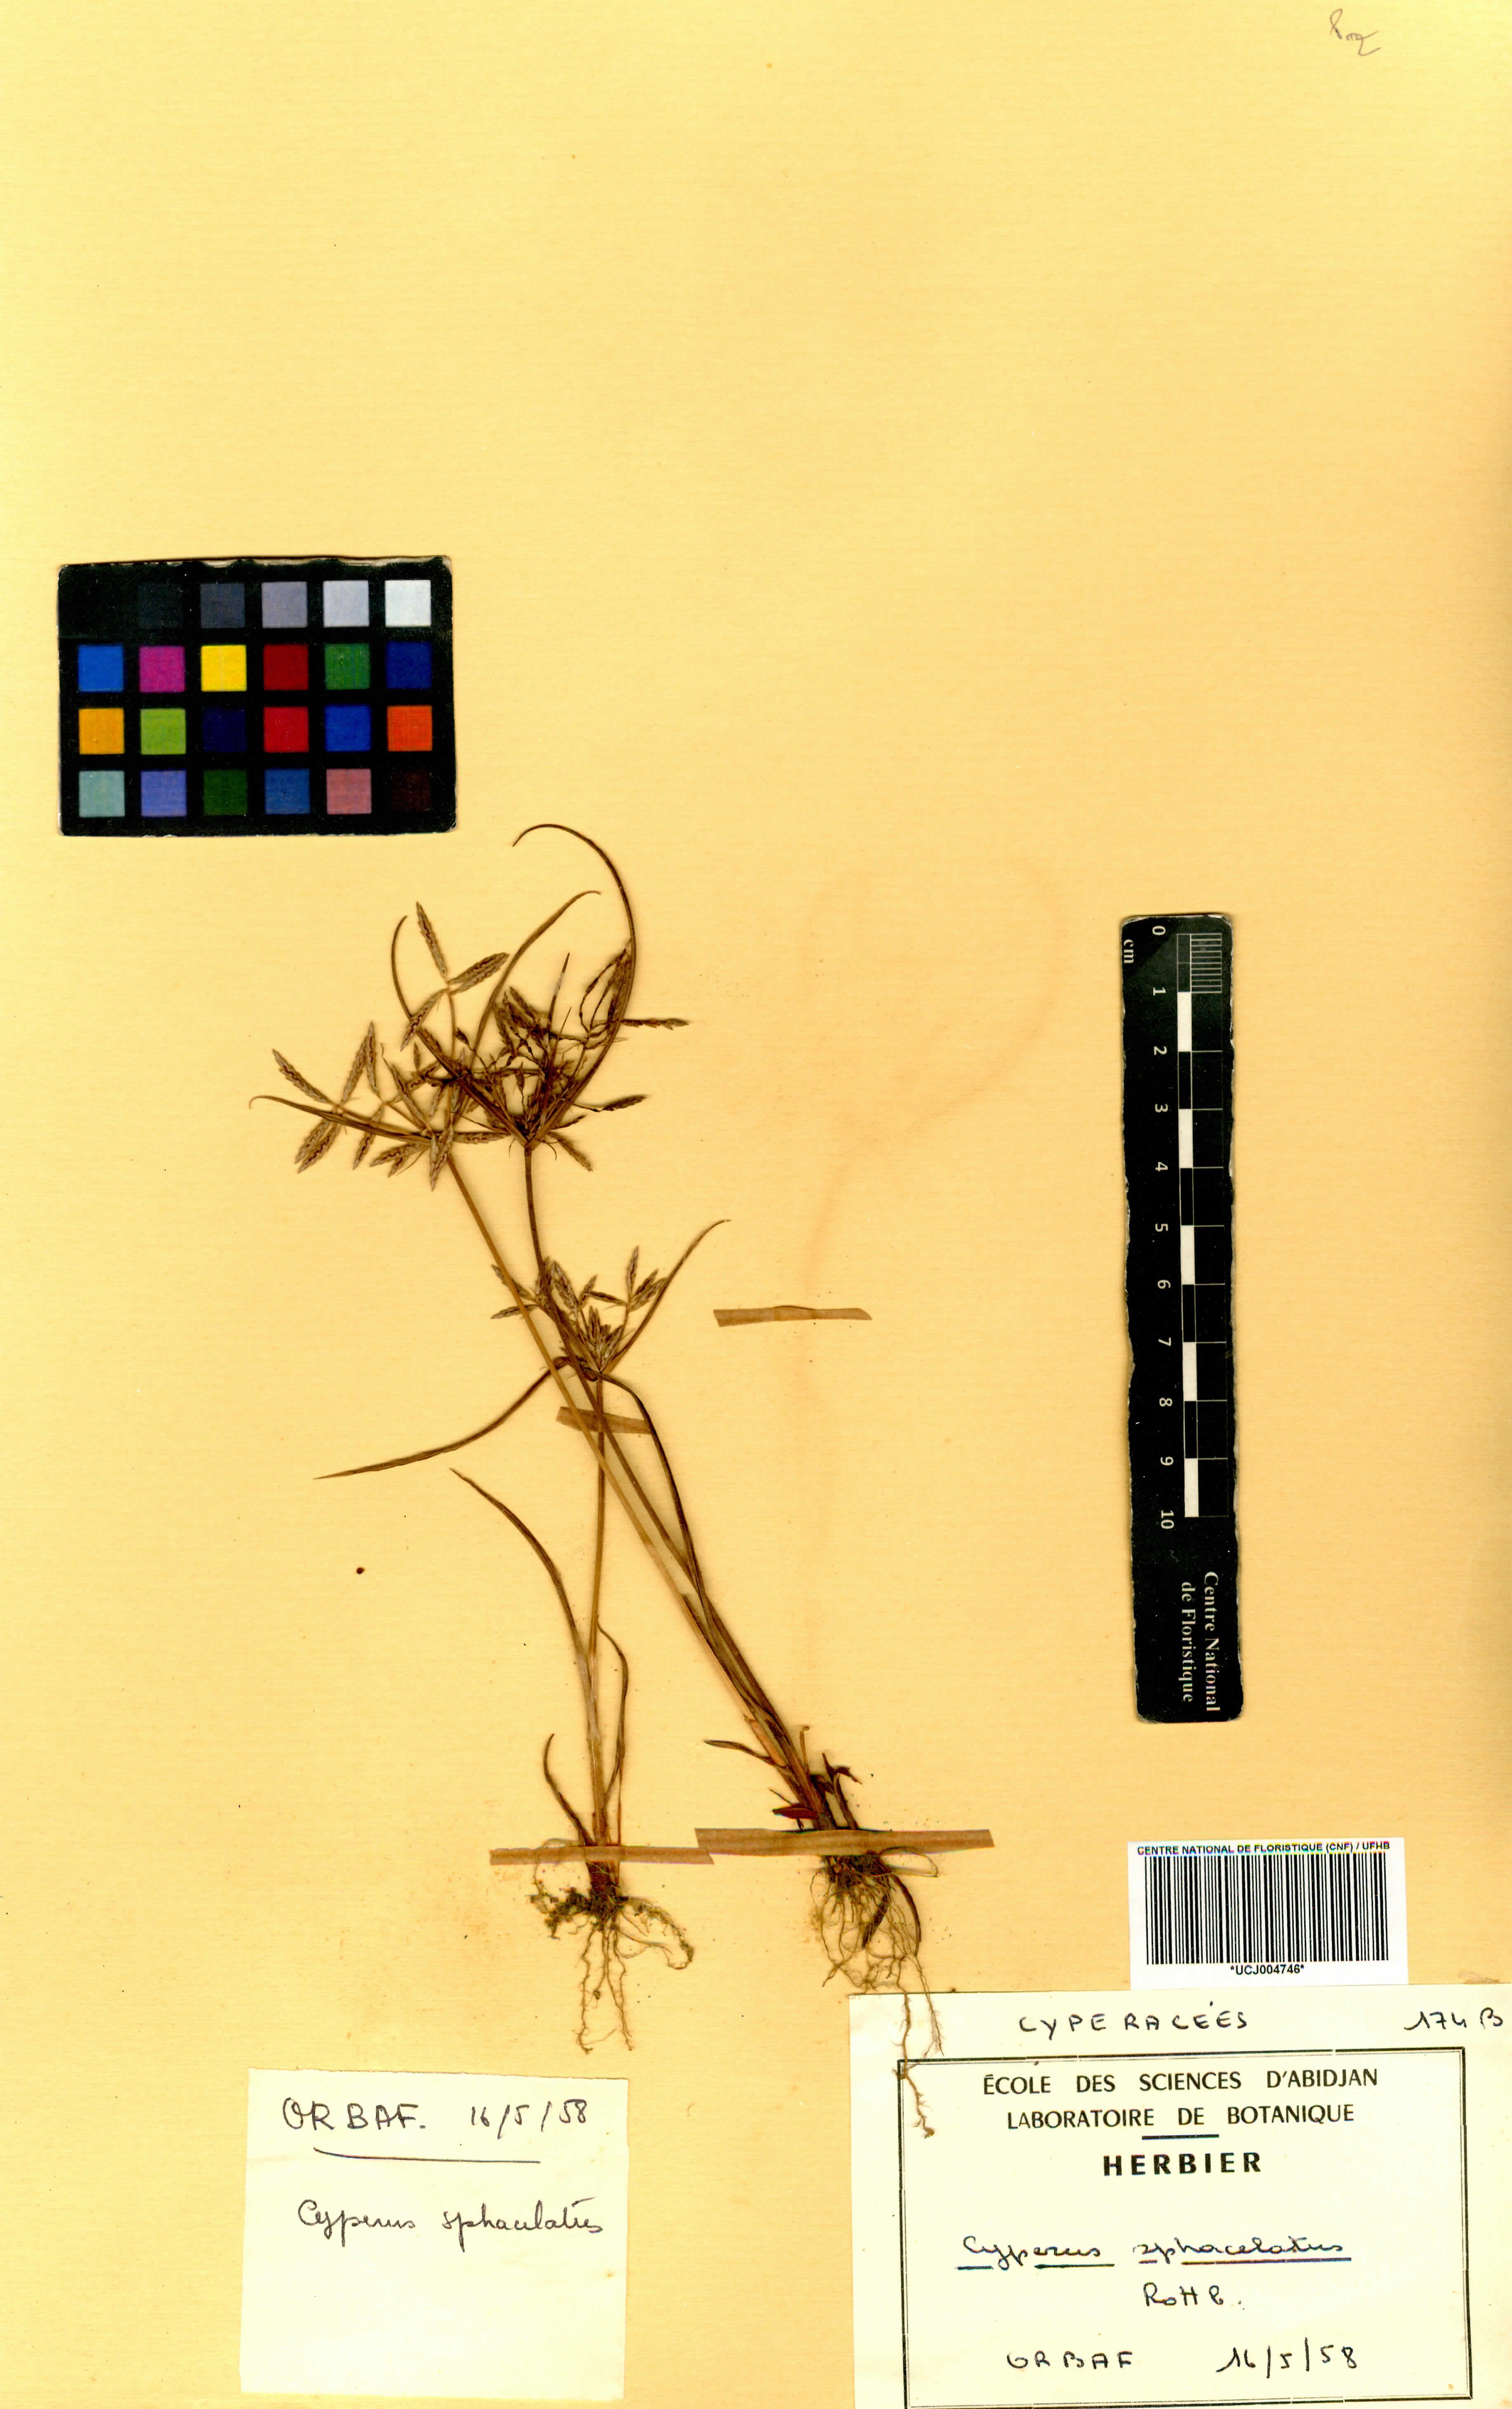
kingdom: Plantae
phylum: Tracheophyta
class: Liliopsida
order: Poales
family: Cyperaceae
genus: Cyperus
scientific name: Cyperus sphacelatus
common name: Roadside flatsedge
